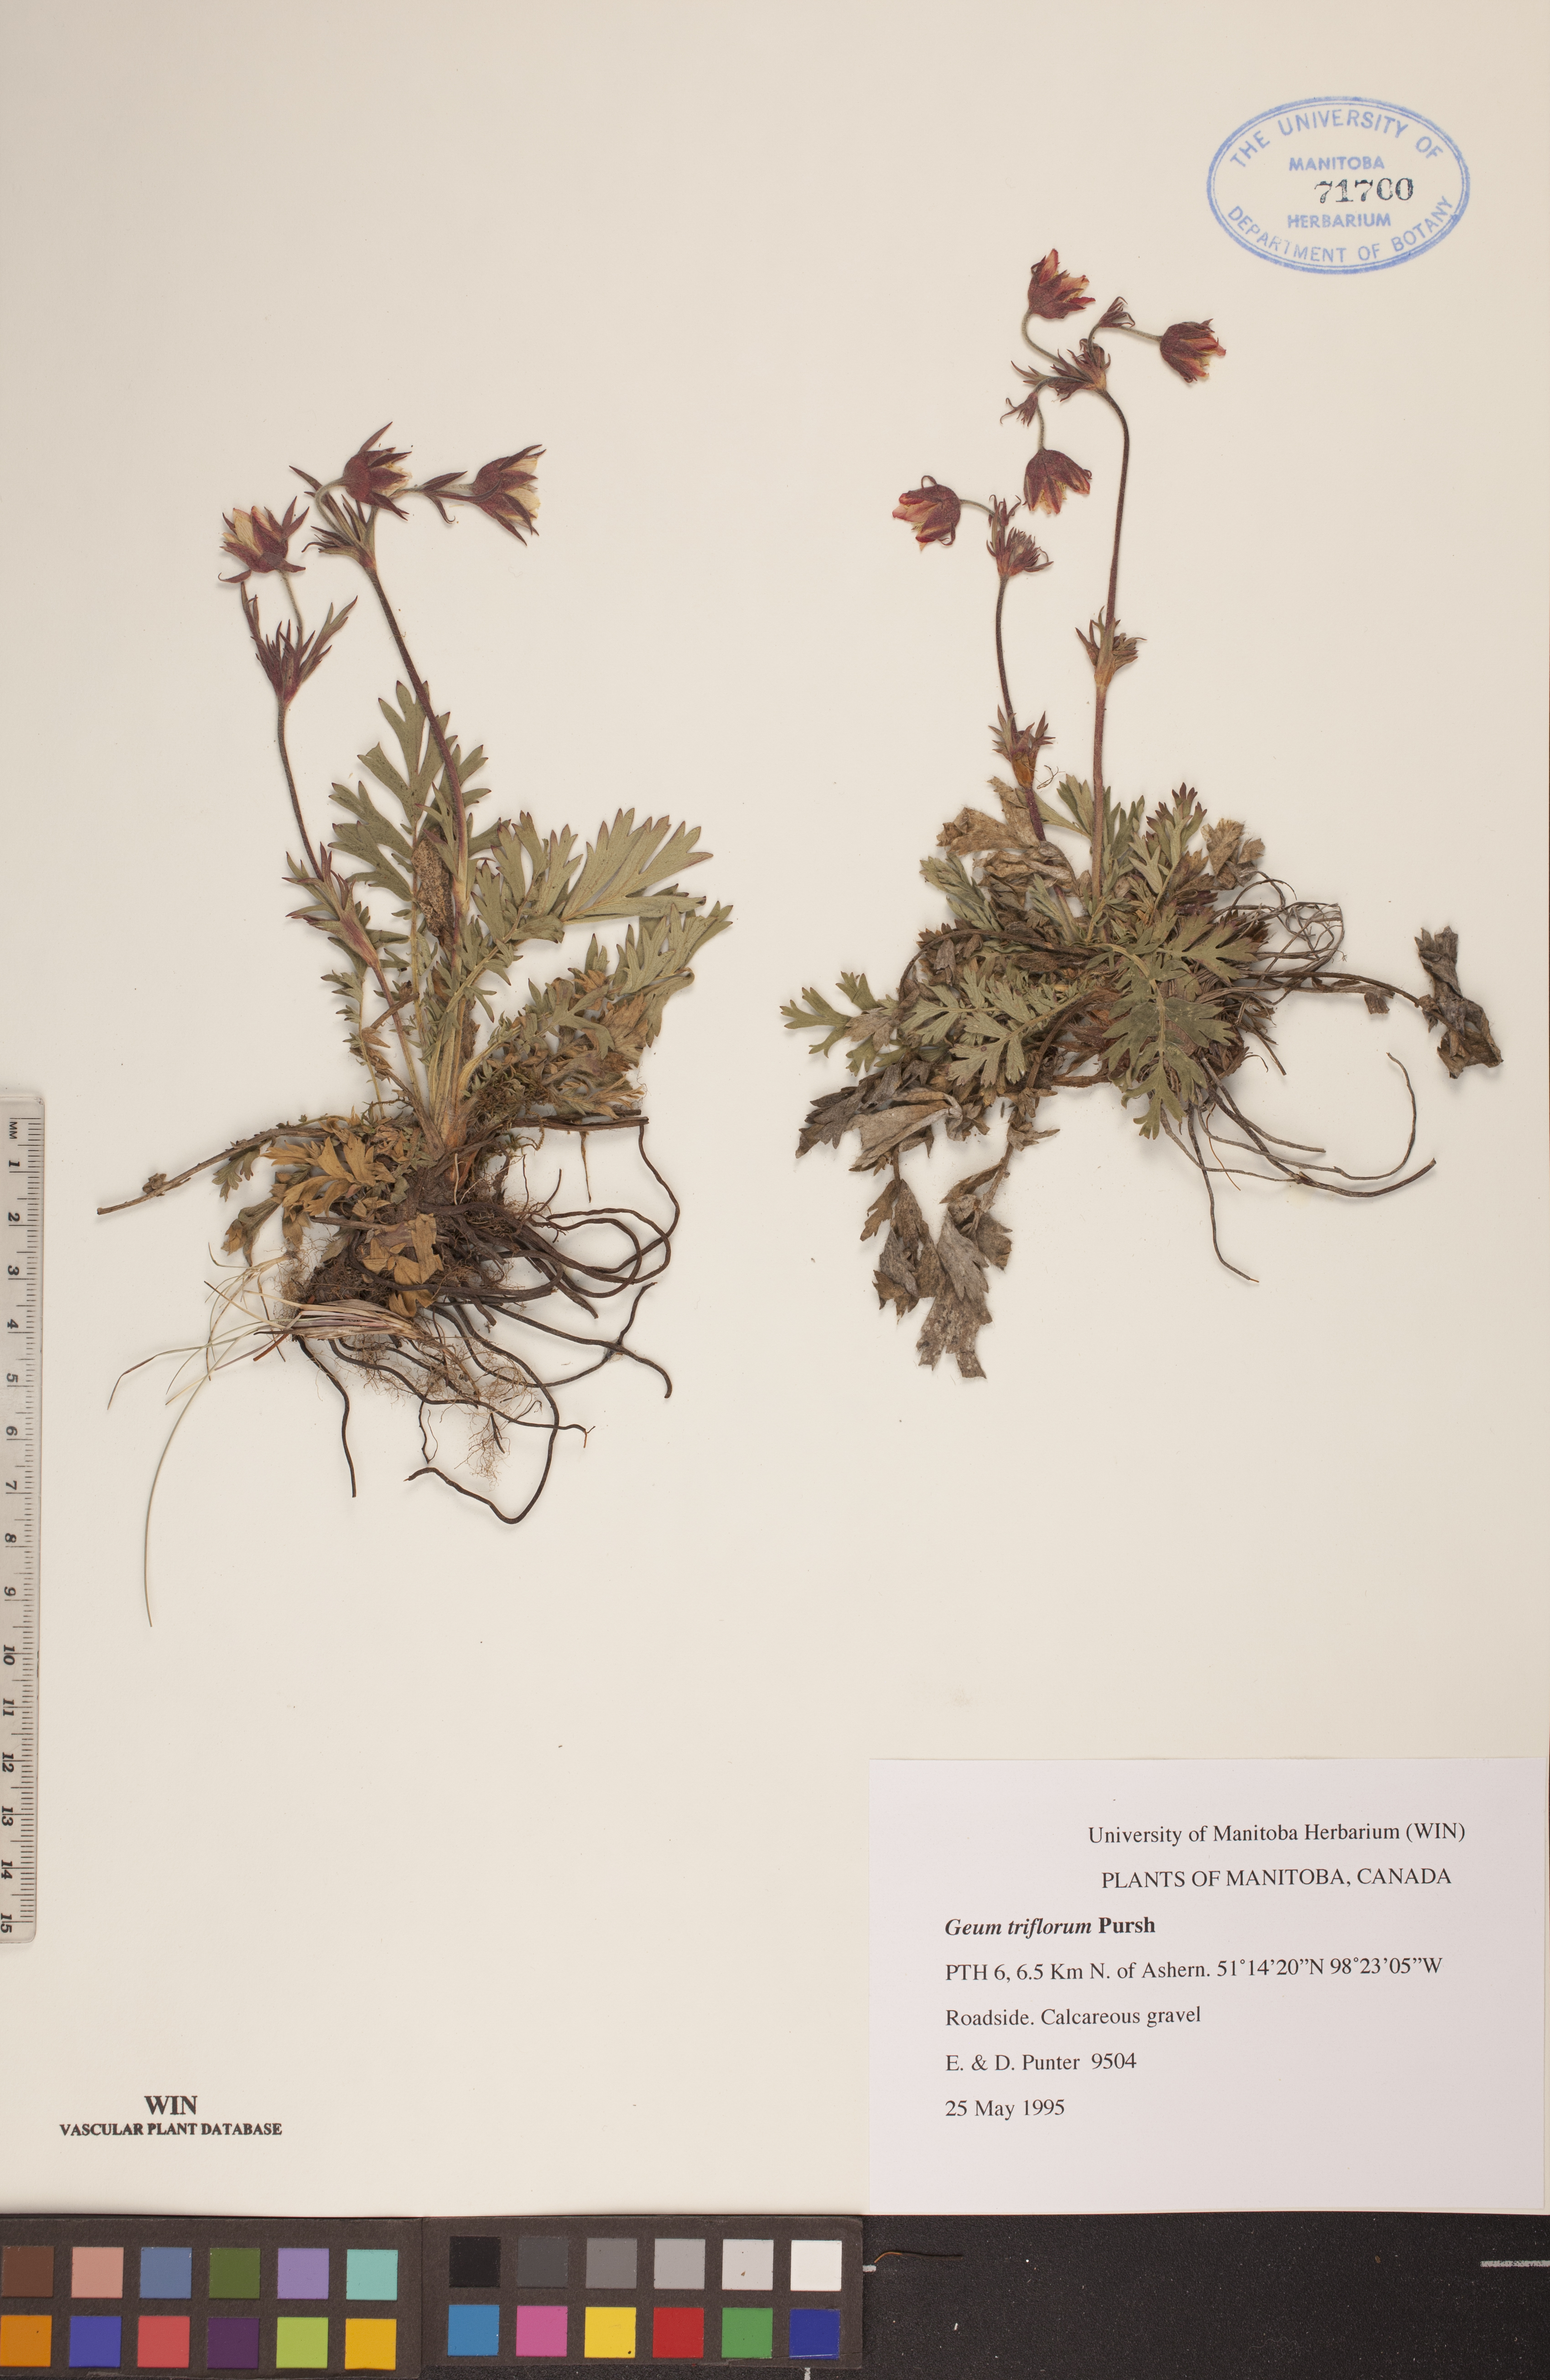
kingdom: Plantae
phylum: Tracheophyta
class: Magnoliopsida
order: Rosales
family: Rosaceae
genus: Geum
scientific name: Geum triflorum
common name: Old man's whiskers
